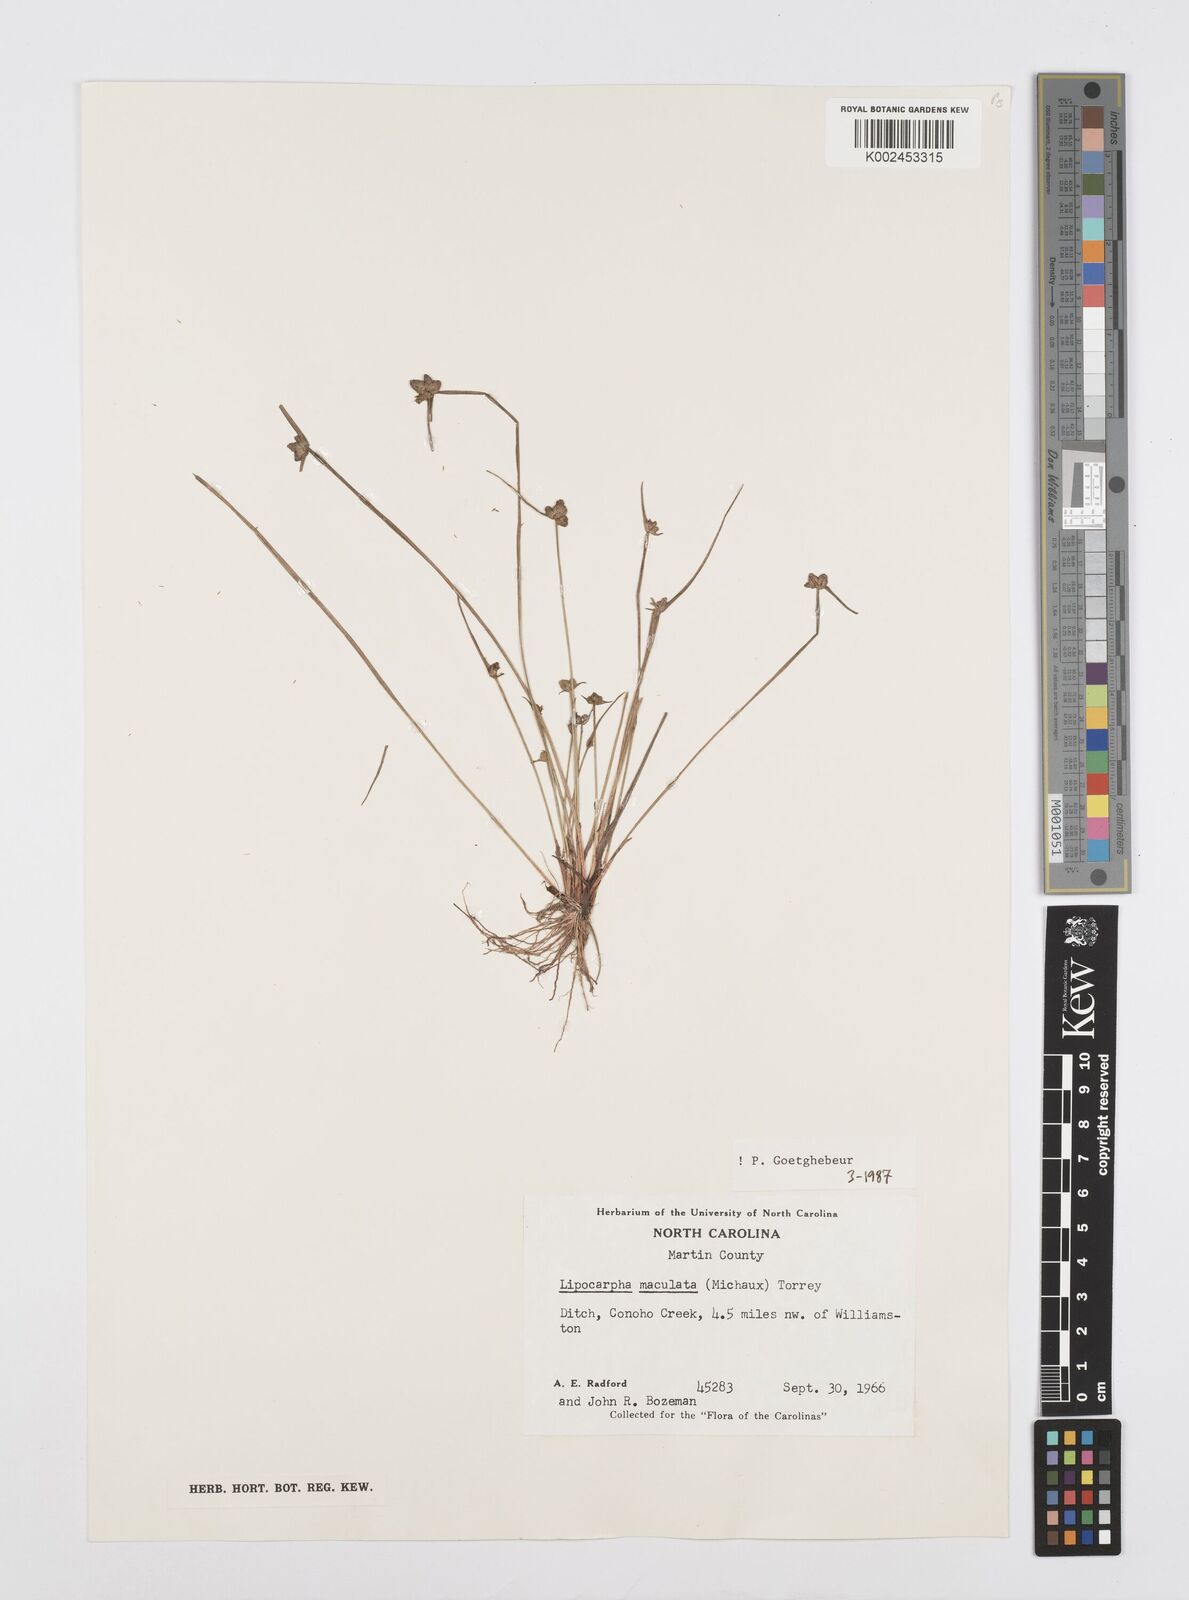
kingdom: Plantae
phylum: Tracheophyta
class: Liliopsida
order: Poales
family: Cyperaceae
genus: Cyperus
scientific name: Cyperus maculatus
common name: Maculated sedge
